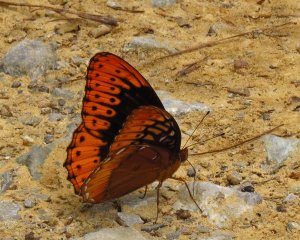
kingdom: Animalia
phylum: Arthropoda
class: Insecta
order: Lepidoptera
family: Nymphalidae
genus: Speyeria
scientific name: Speyeria diana
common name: Diana Fritillary
